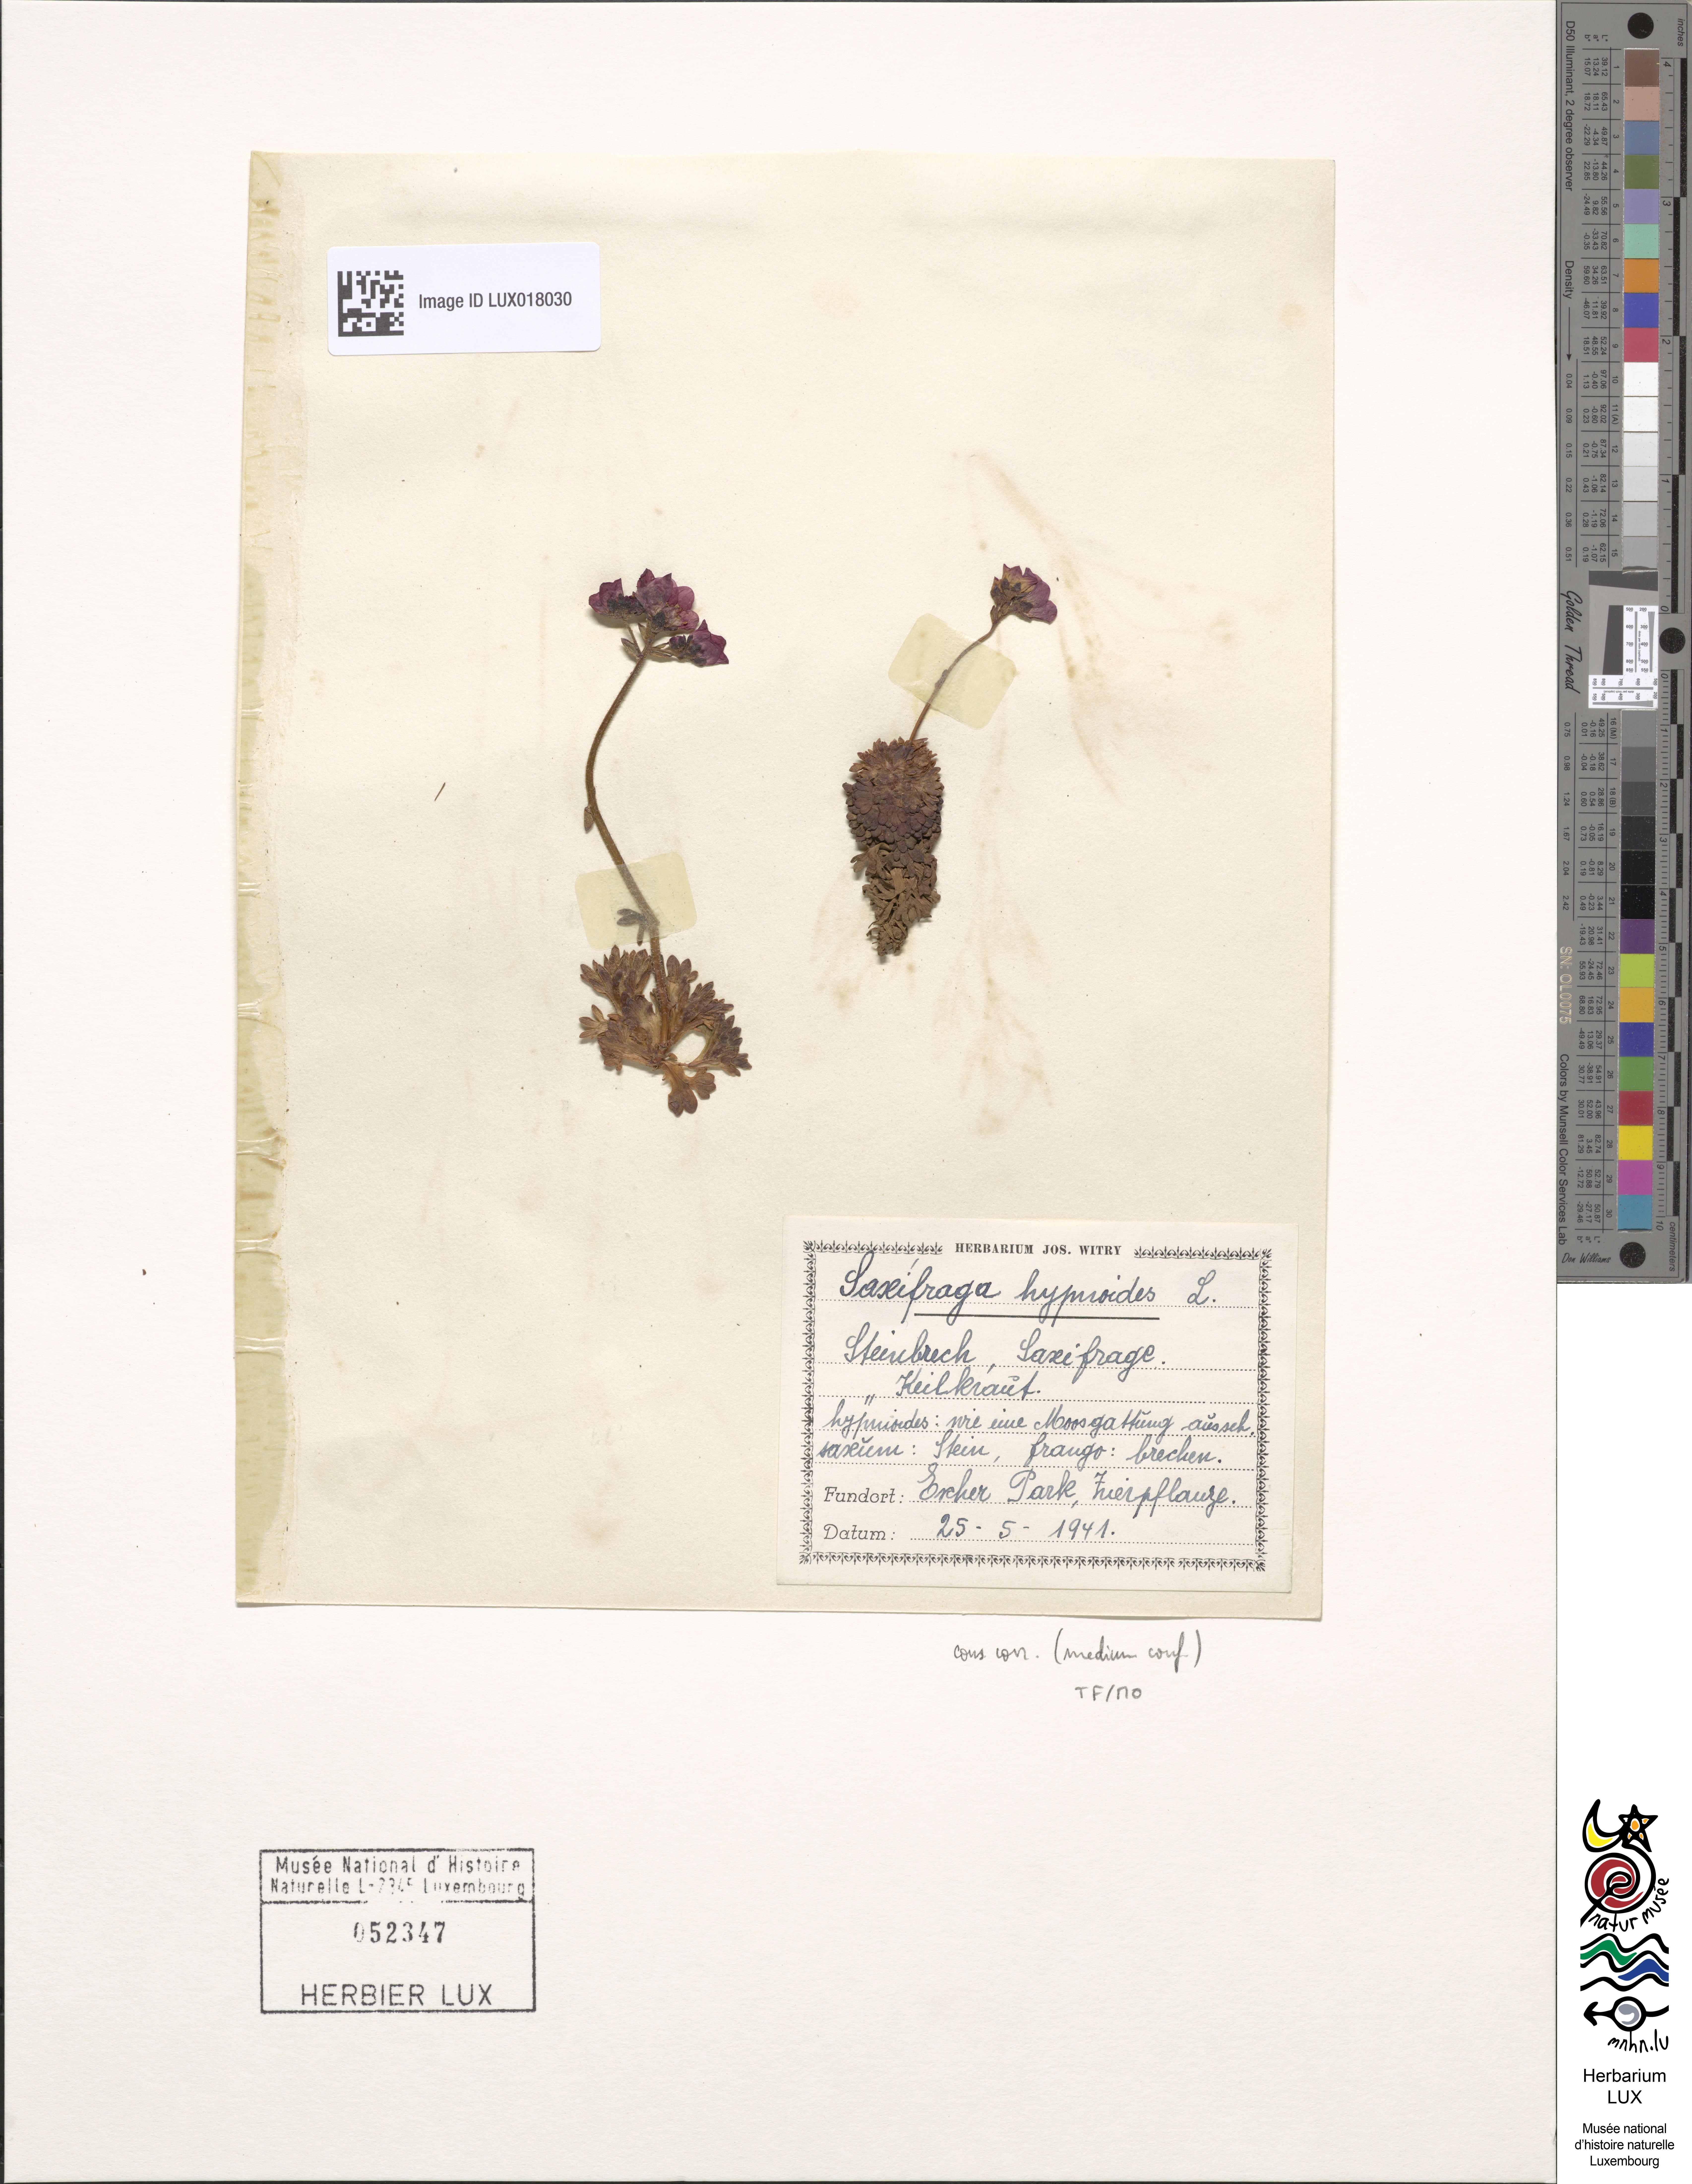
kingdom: Plantae
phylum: Tracheophyta
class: Magnoliopsida
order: Saxifragales
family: Saxifragaceae
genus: Saxifraga
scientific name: Saxifraga hypnoides
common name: Mossy saxifrage
